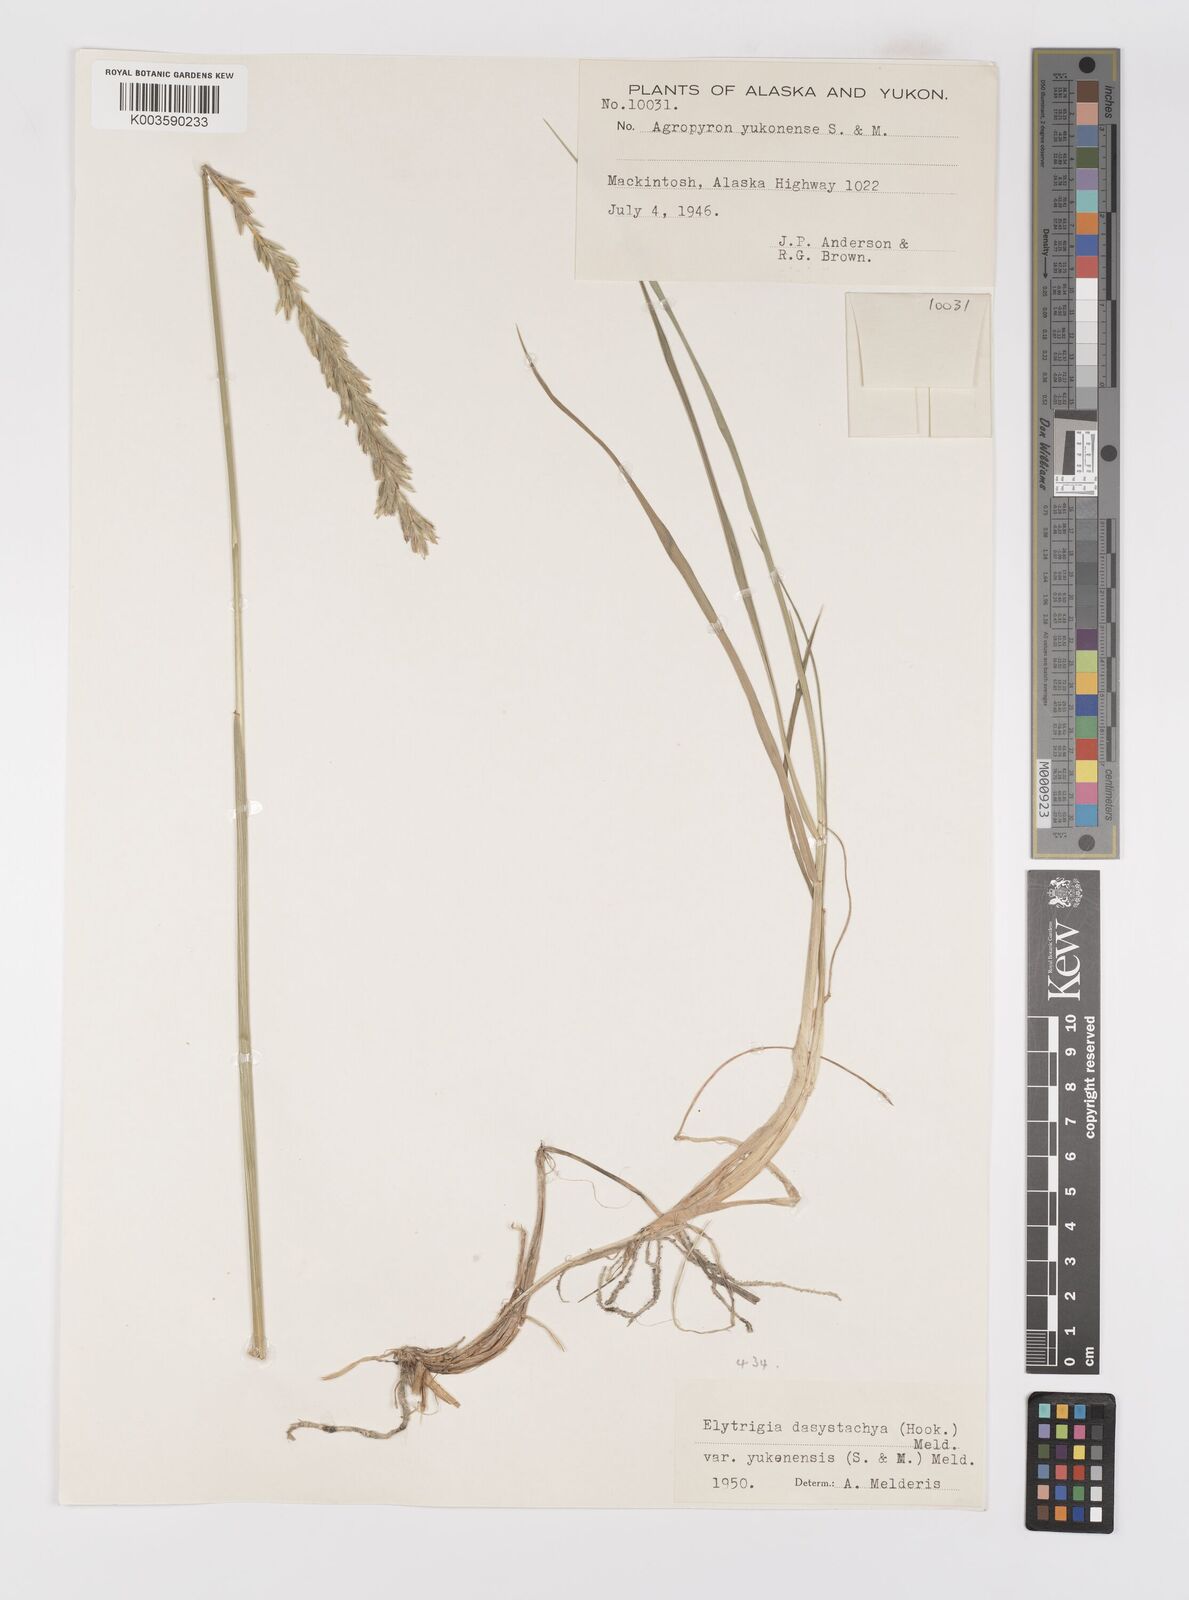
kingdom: Plantae
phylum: Tracheophyta
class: Liliopsida
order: Poales
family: Poaceae
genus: Elymus
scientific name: Elymus alaskanus
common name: Alaska wheatgrass
